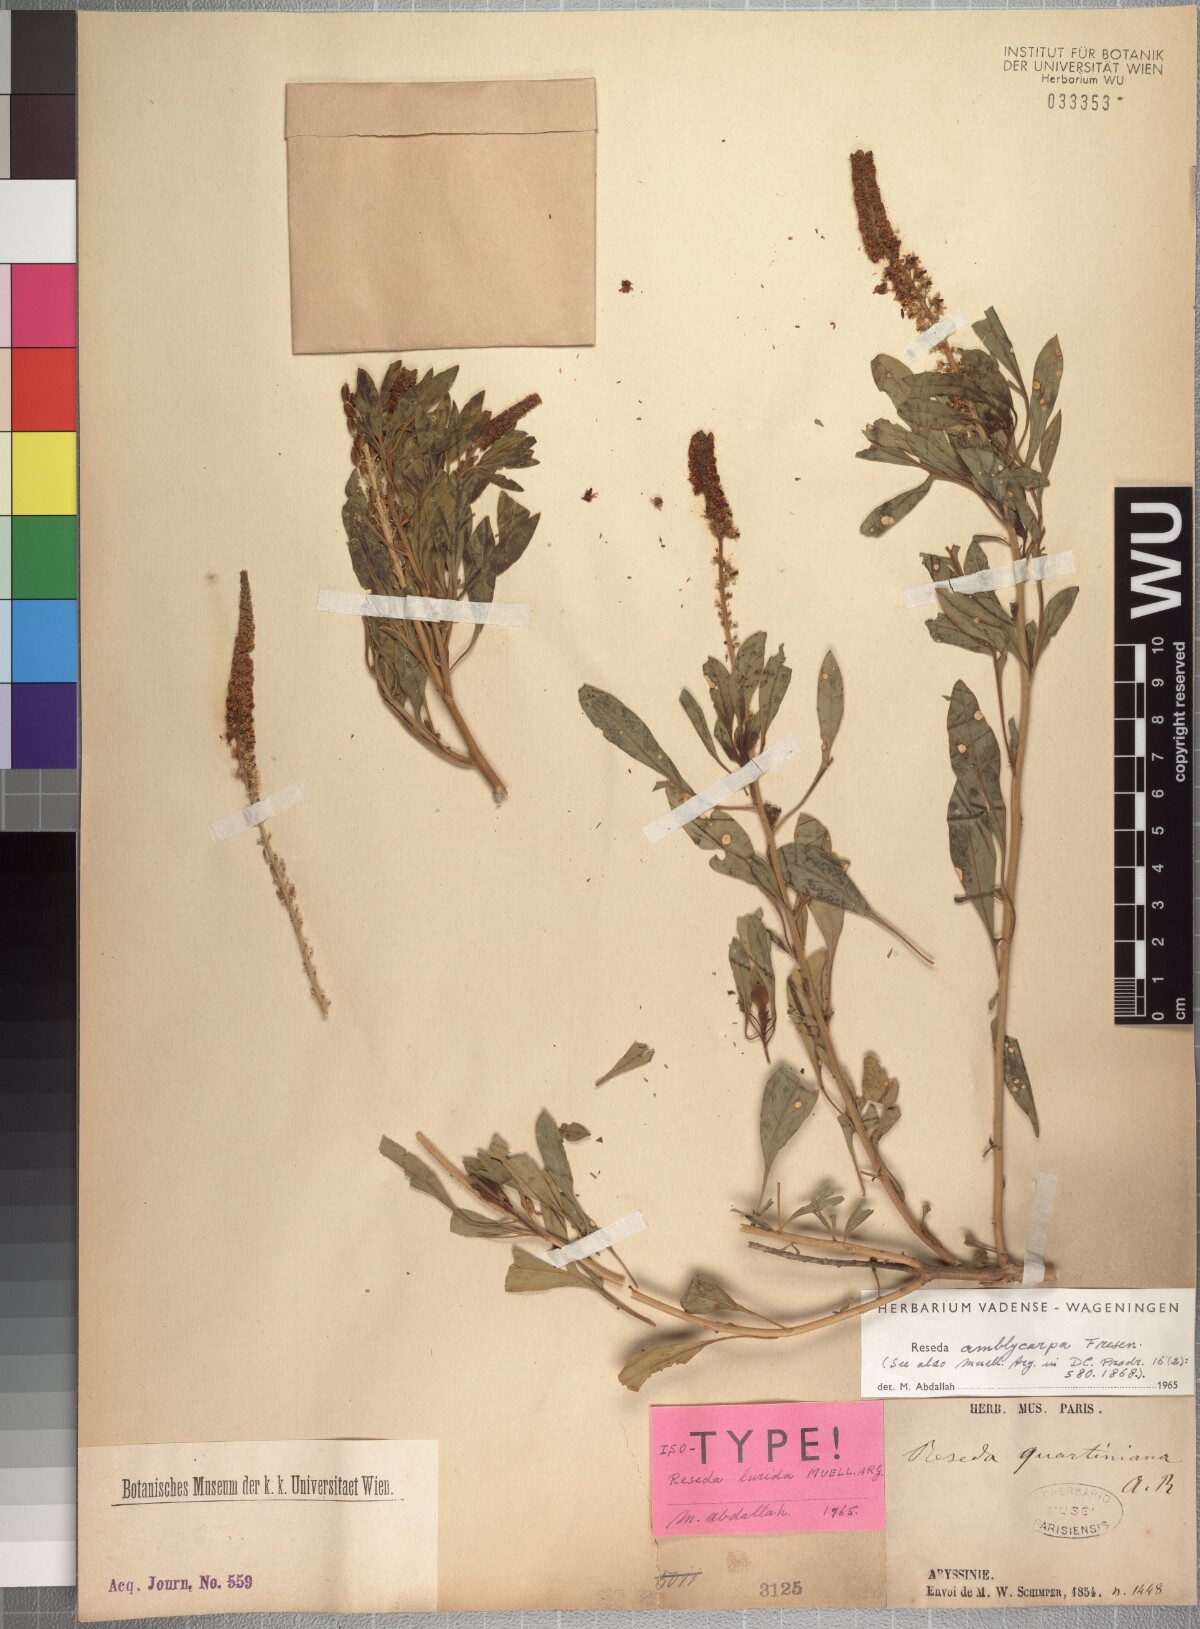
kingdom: Plantae
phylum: Tracheophyta
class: Magnoliopsida
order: Brassicales
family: Resedaceae
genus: Reseda
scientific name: Reseda amblycarpa
